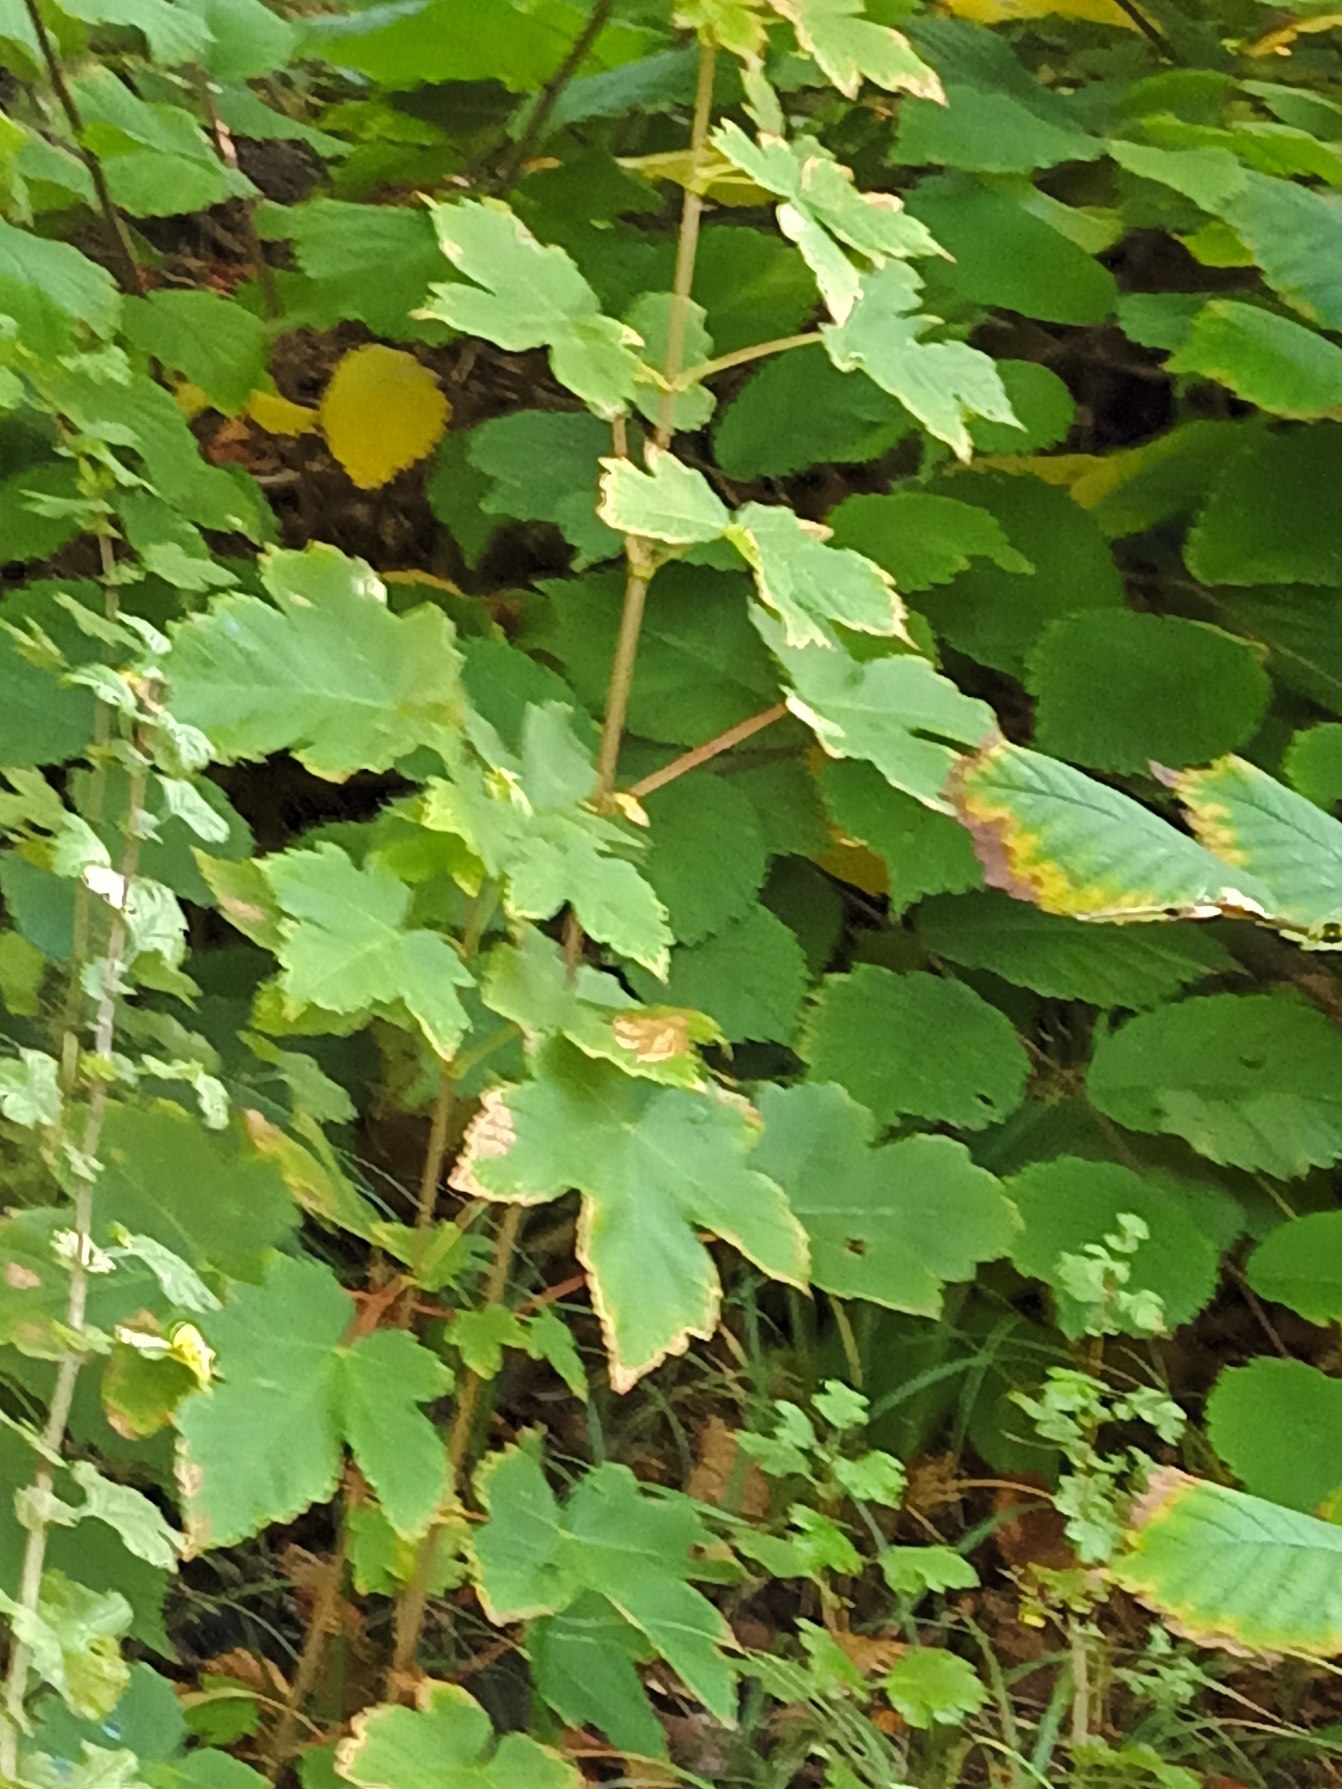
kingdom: Plantae
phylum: Tracheophyta
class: Magnoliopsida
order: Sapindales
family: Sapindaceae
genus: Acer
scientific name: Acer pseudoplatanus
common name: Ahorn
